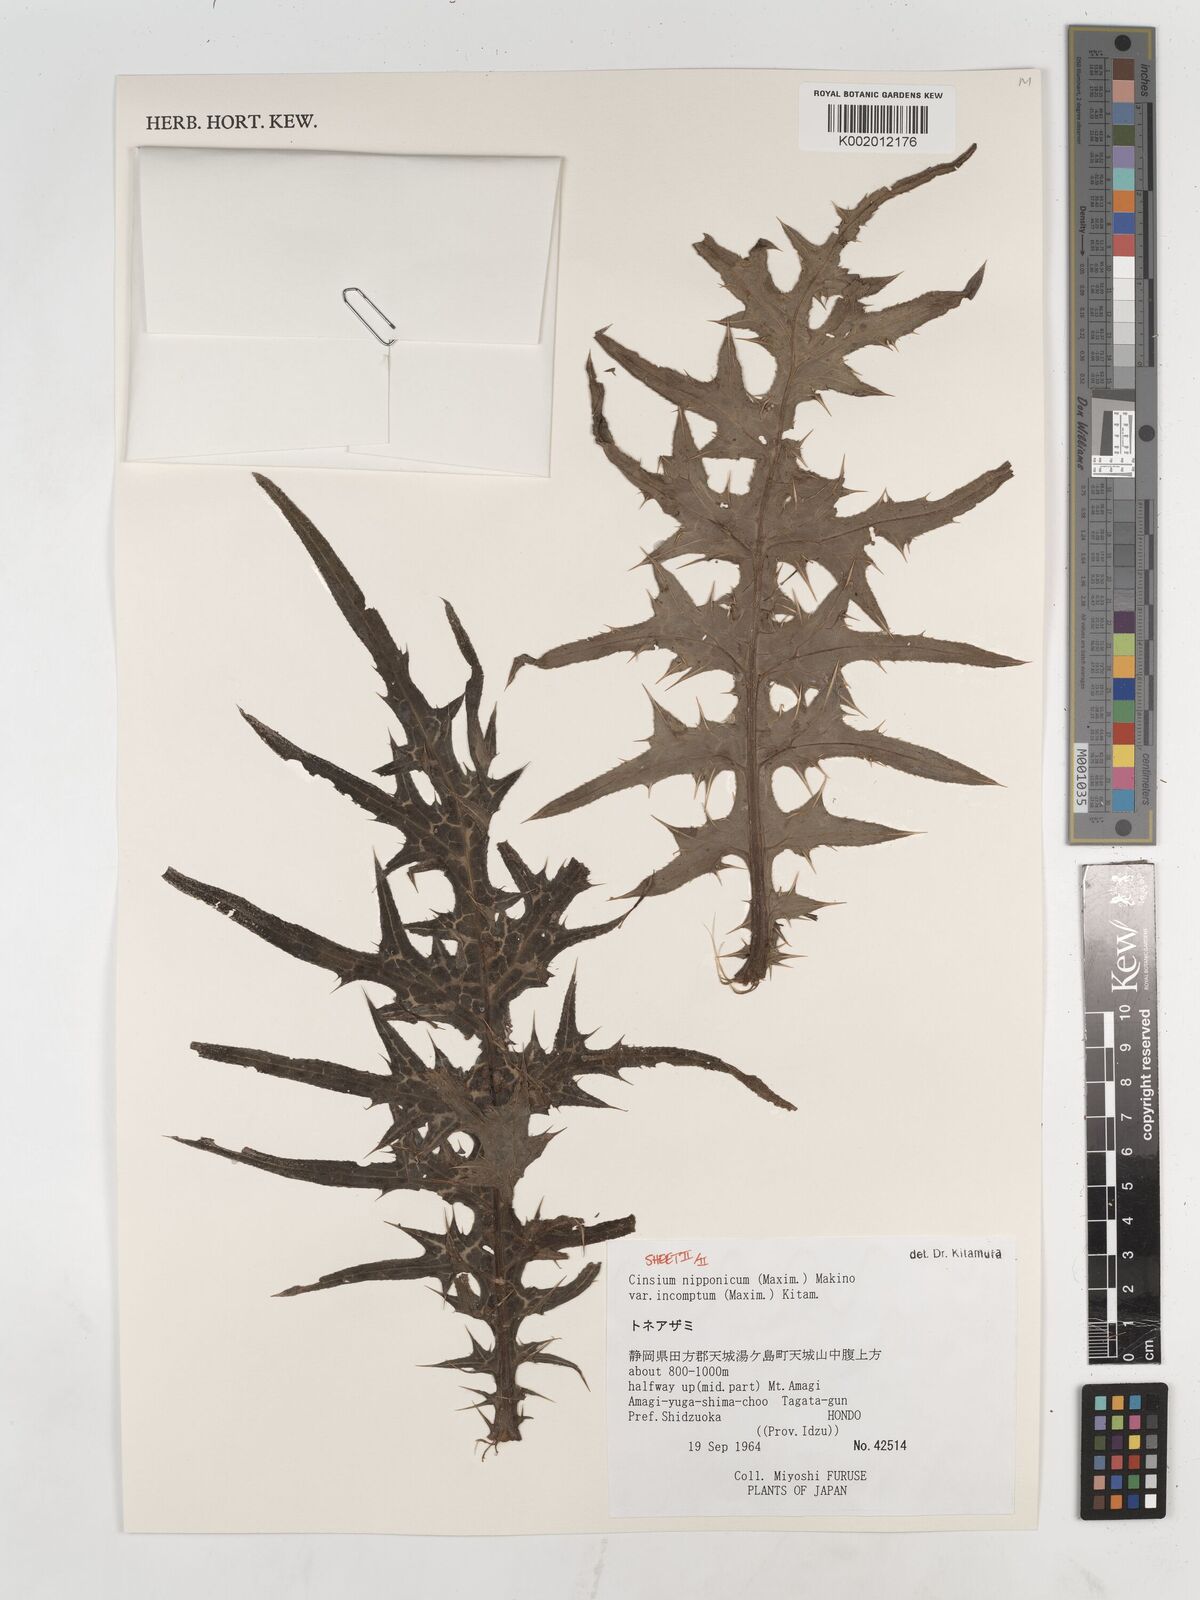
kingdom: Plantae
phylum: Tracheophyta
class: Magnoliopsida
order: Asterales
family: Asteraceae
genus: Cirsium
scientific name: Cirsium nipponicum
